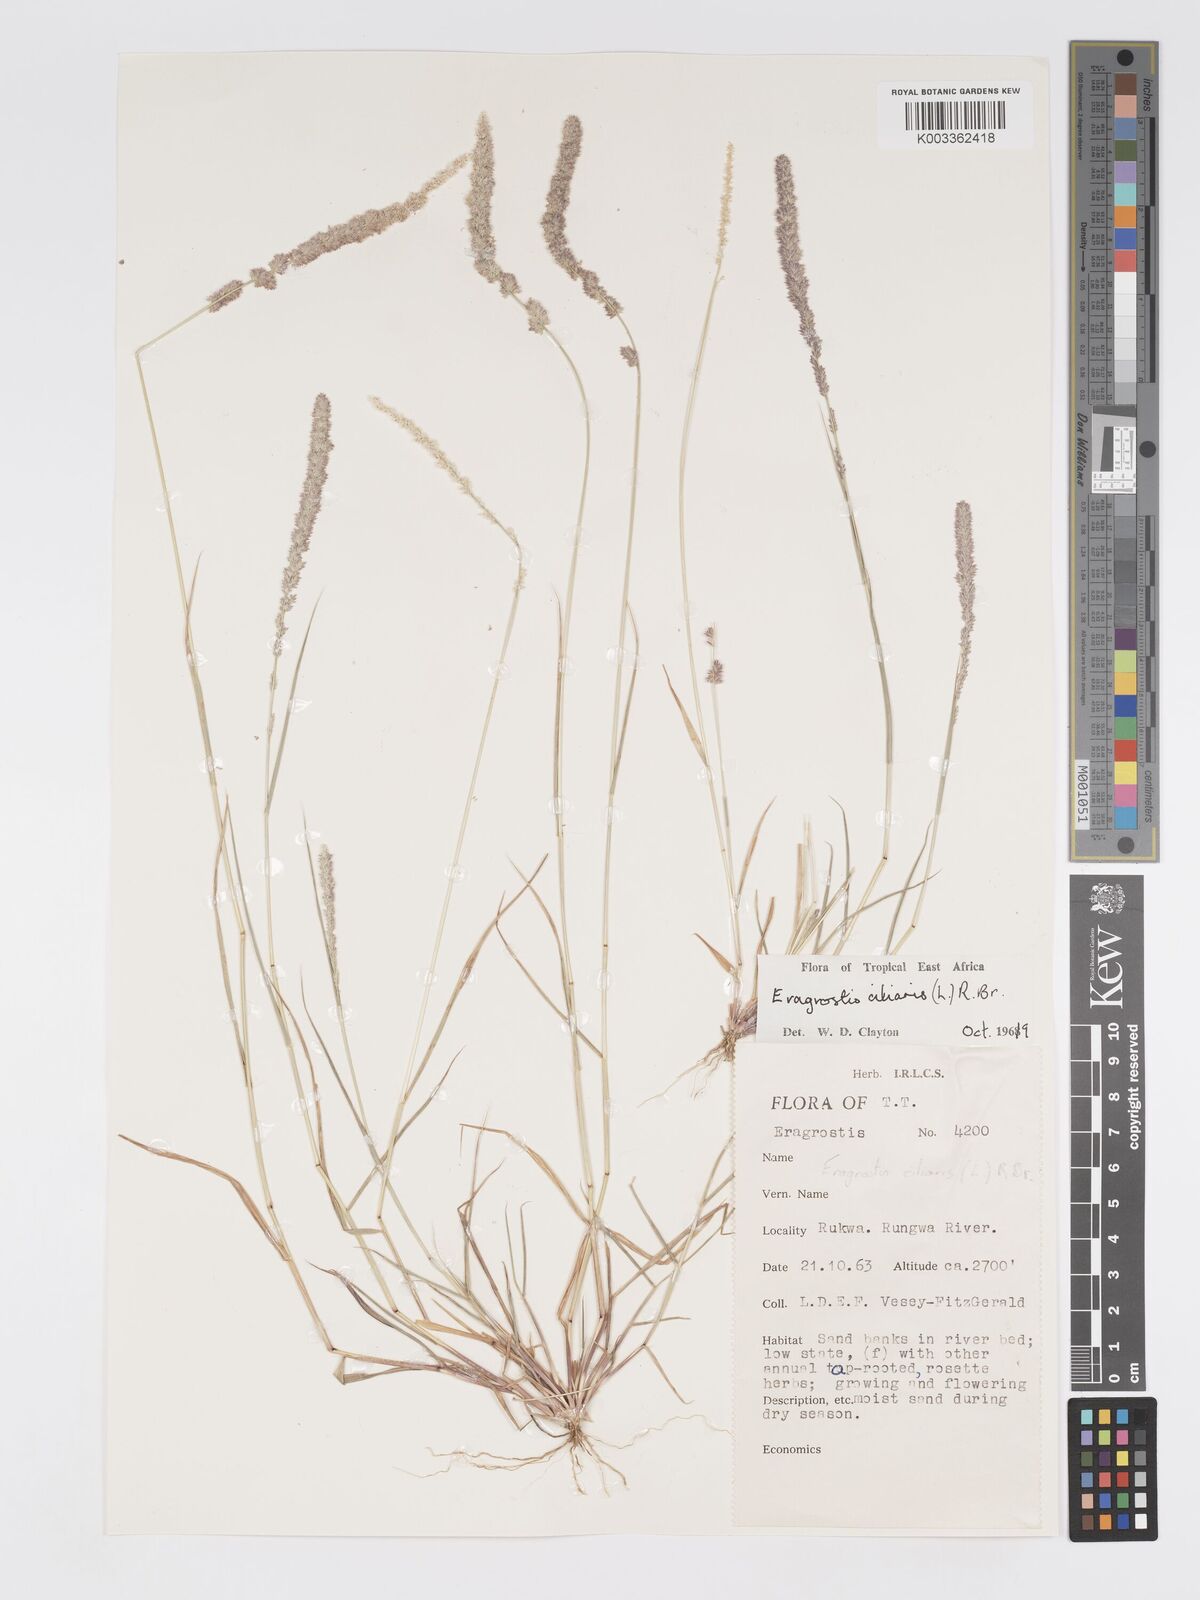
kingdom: Plantae
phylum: Tracheophyta
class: Liliopsida
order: Poales
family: Poaceae
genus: Eragrostis
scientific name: Eragrostis ciliaris
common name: Gophertail lovegrass
